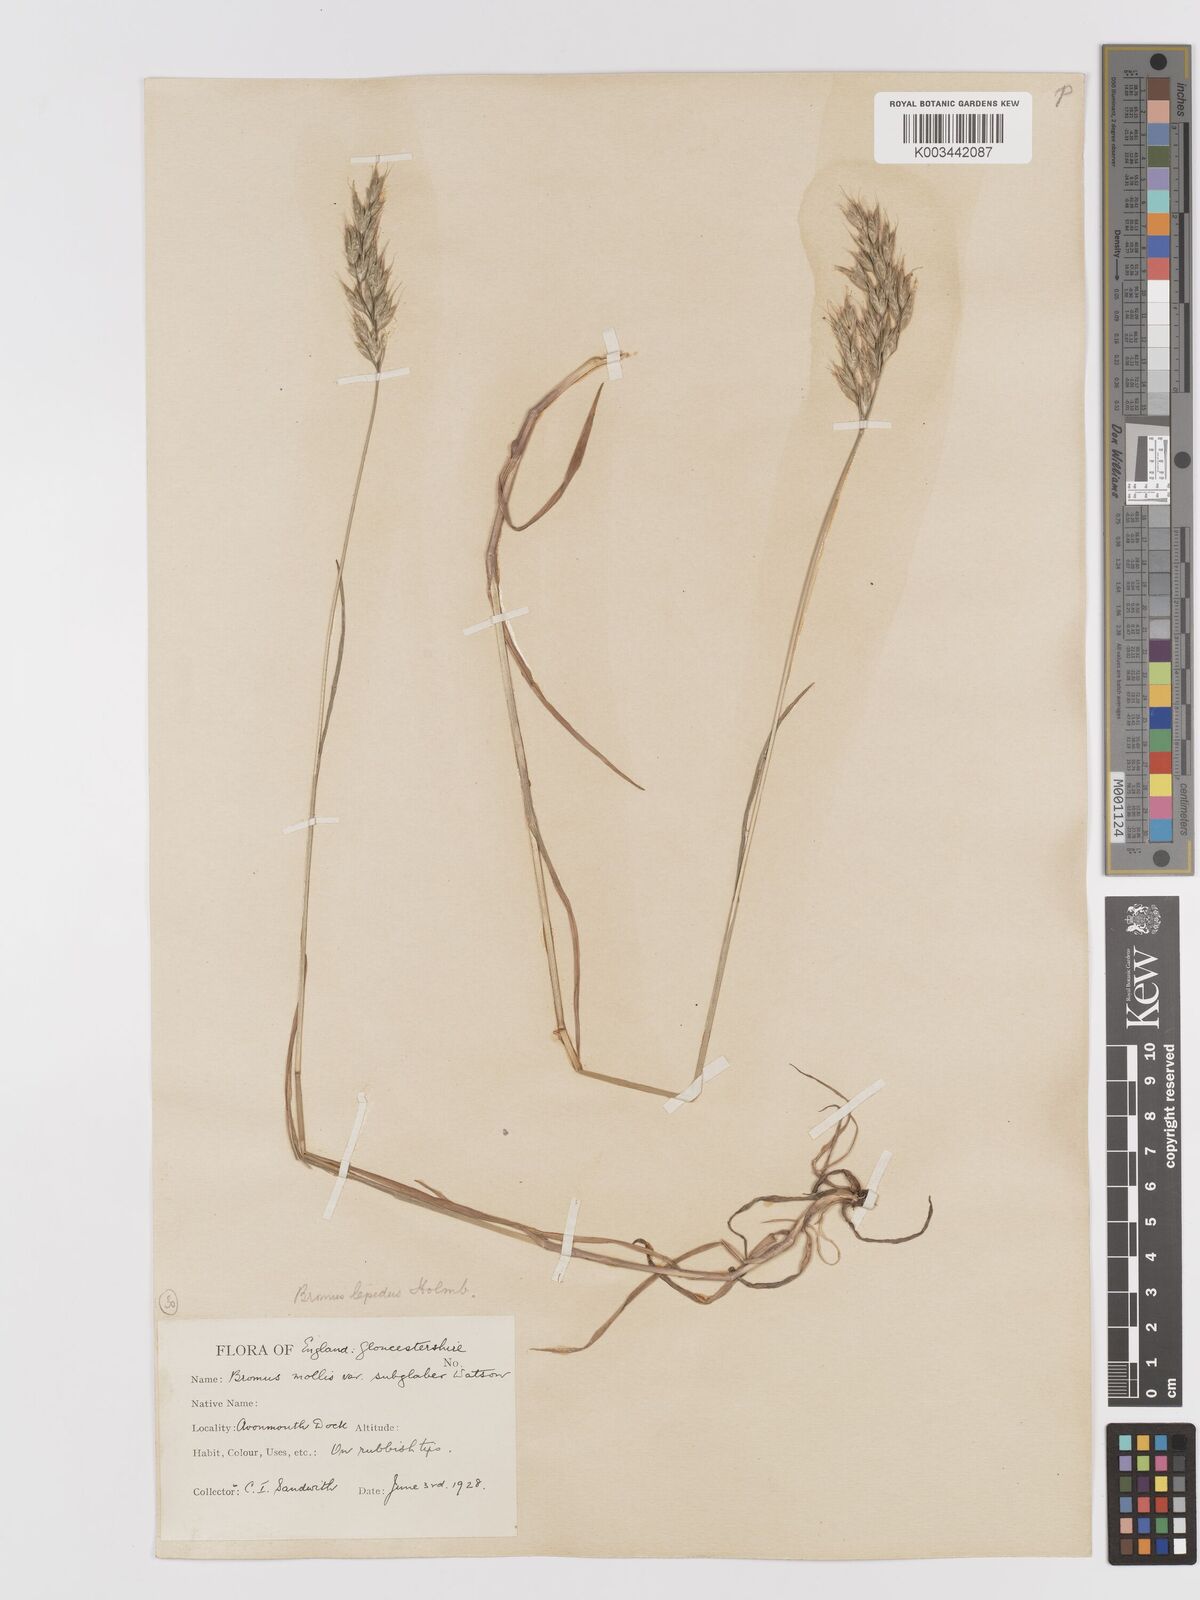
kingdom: Plantae
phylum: Tracheophyta
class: Liliopsida
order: Poales
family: Poaceae
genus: Bromus
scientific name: Bromus lepidus
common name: Slender soft-brome
